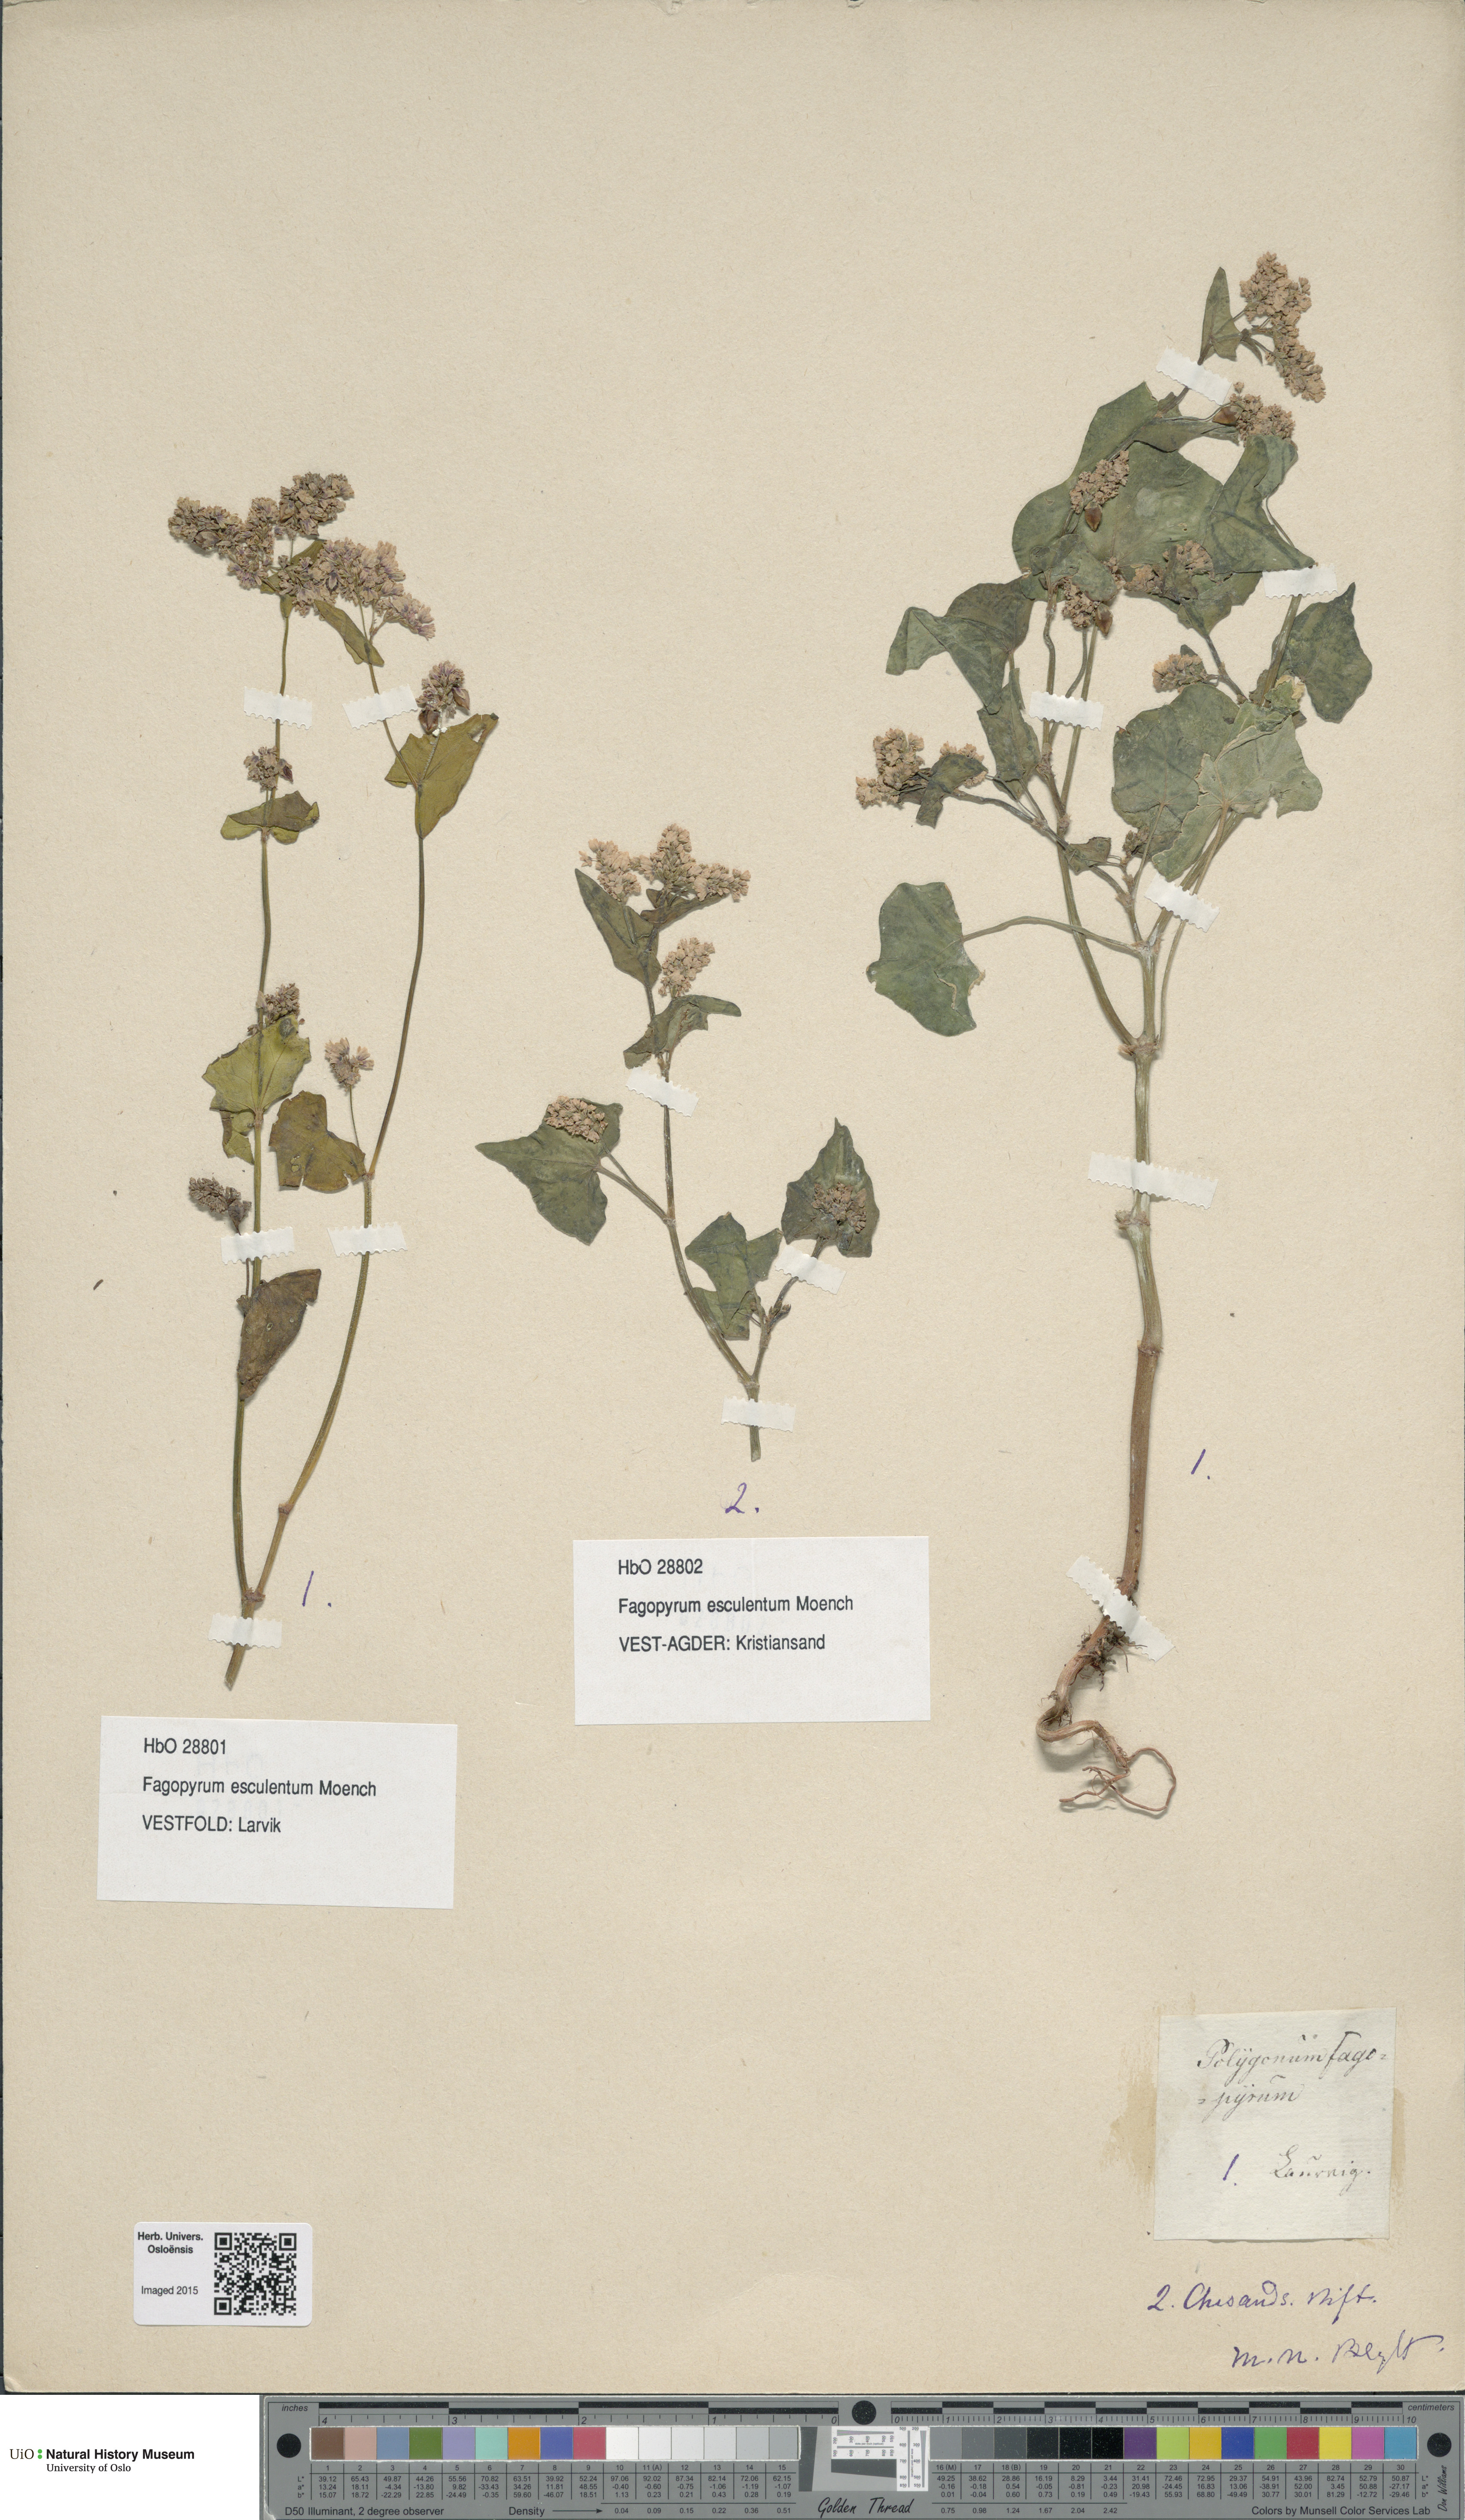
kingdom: Plantae
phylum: Tracheophyta
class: Magnoliopsida
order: Caryophyllales
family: Polygonaceae
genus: Fagopyrum
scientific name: Fagopyrum esculentum
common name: Buckwheat
